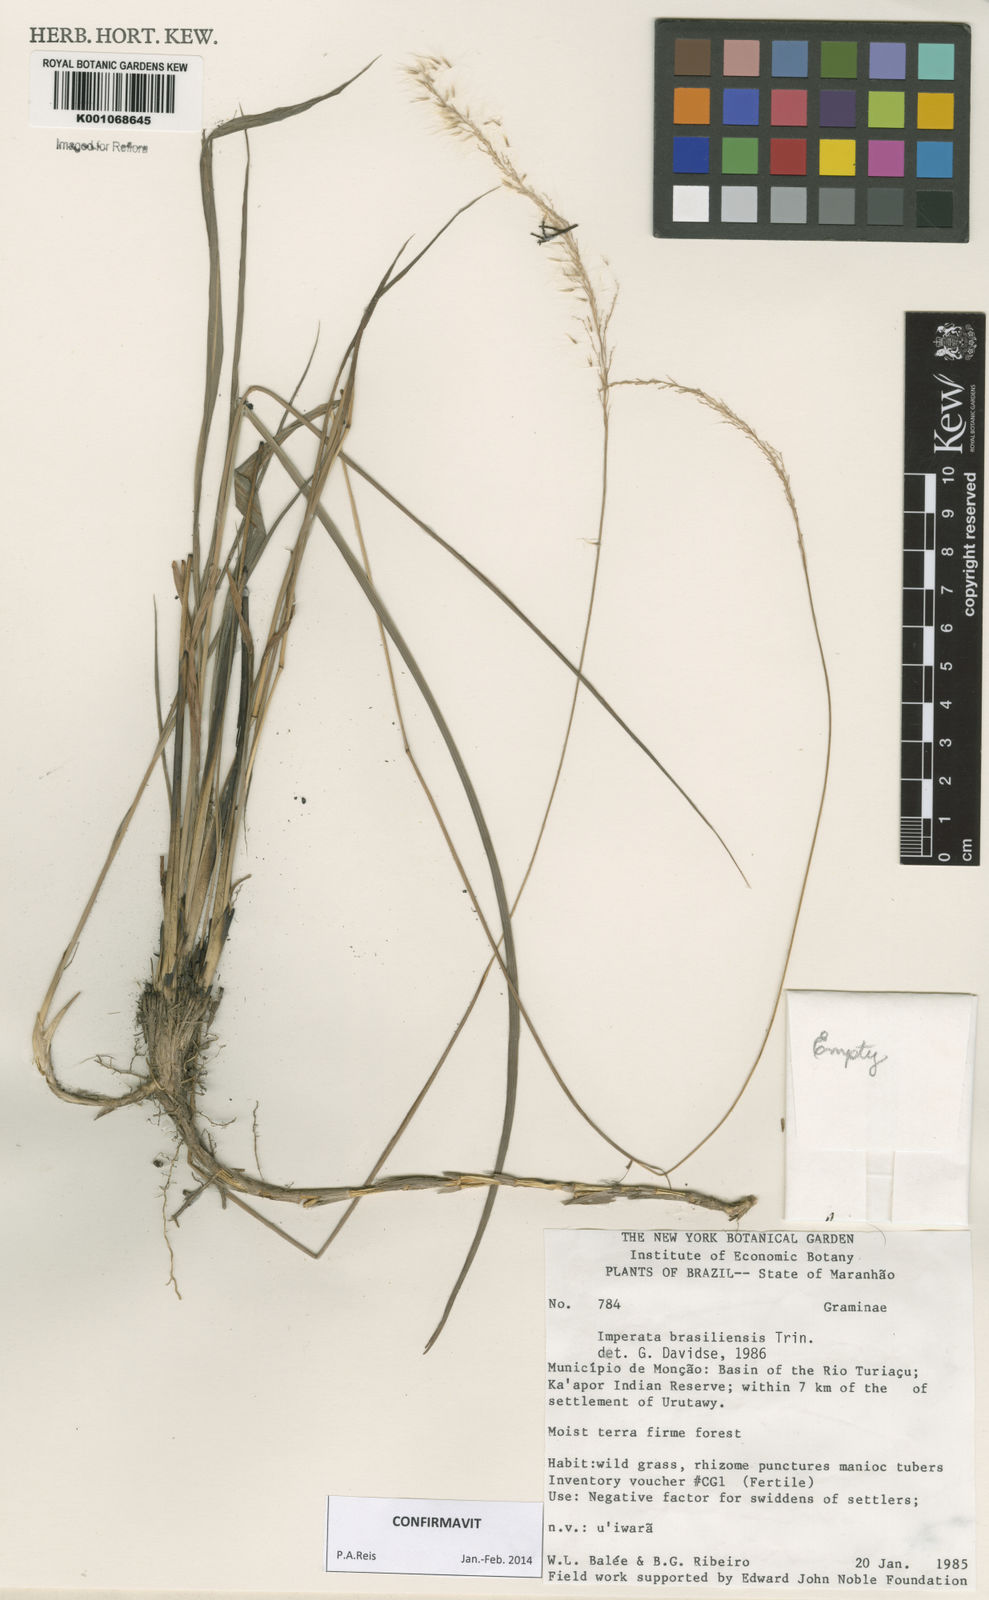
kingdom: Plantae
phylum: Tracheophyta
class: Liliopsida
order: Poales
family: Poaceae
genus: Imperata
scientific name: Imperata brasiliensis
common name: Brazilian satintail
